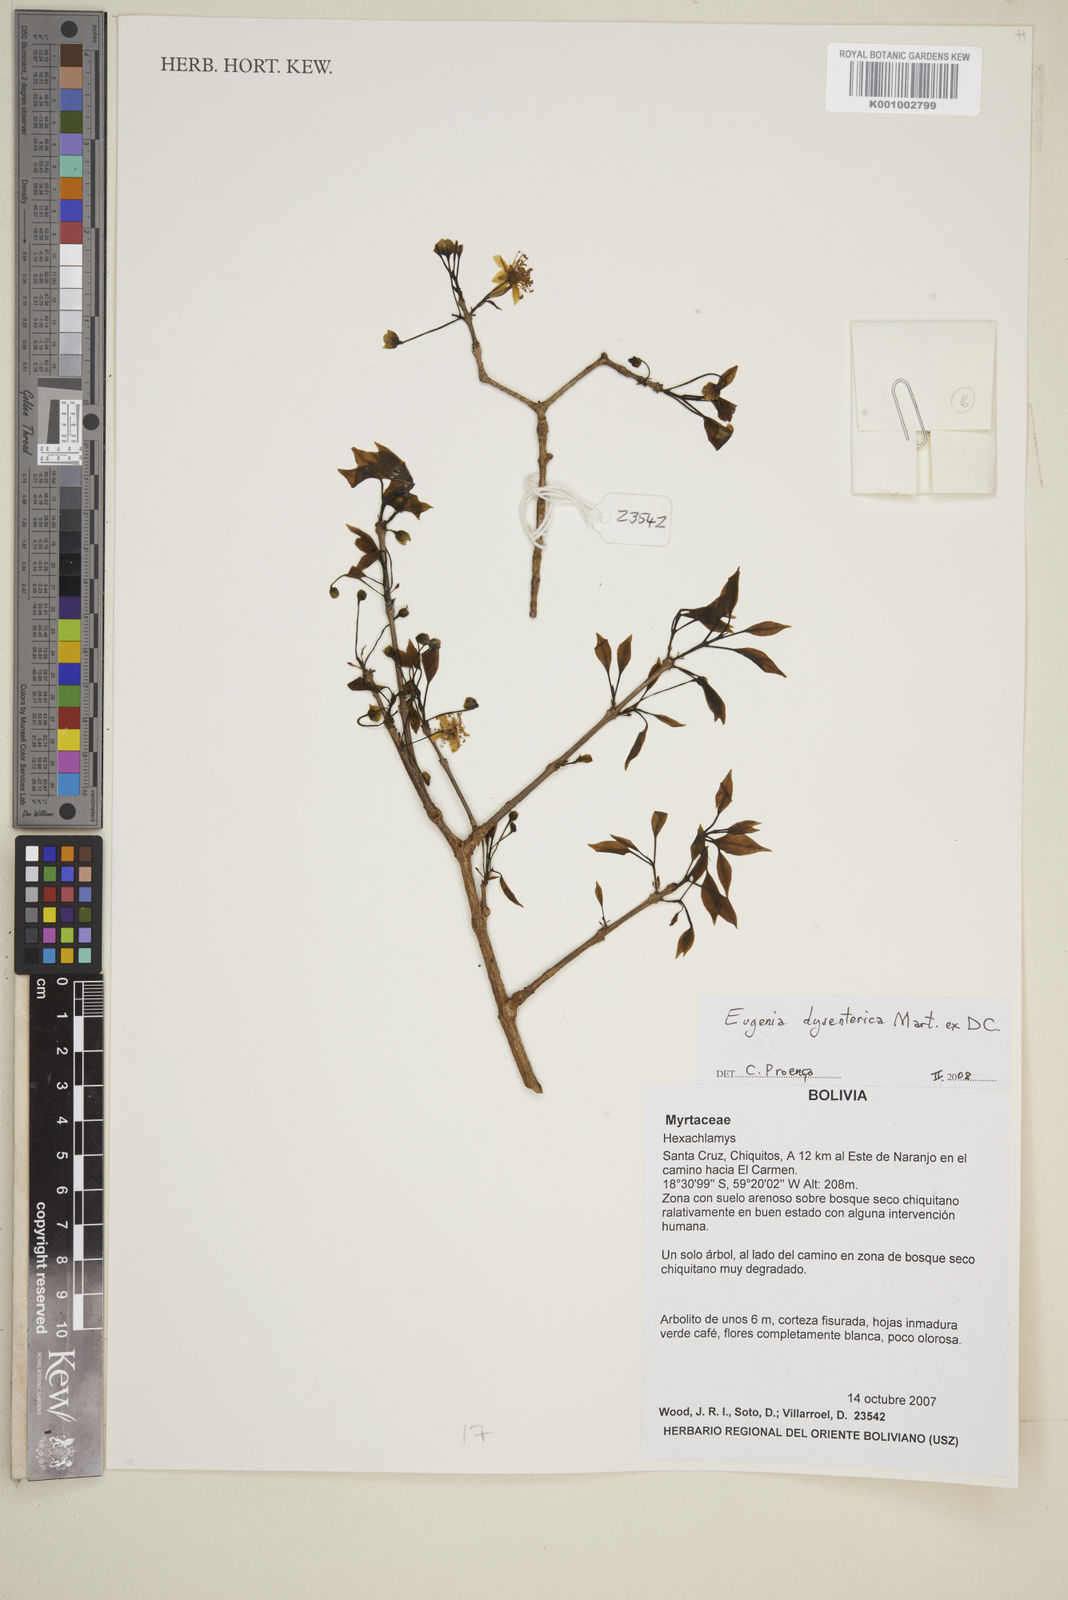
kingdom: Plantae
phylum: Tracheophyta
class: Magnoliopsida
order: Myrtales
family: Myrtaceae
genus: Eugenia
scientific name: Eugenia dysenterica
